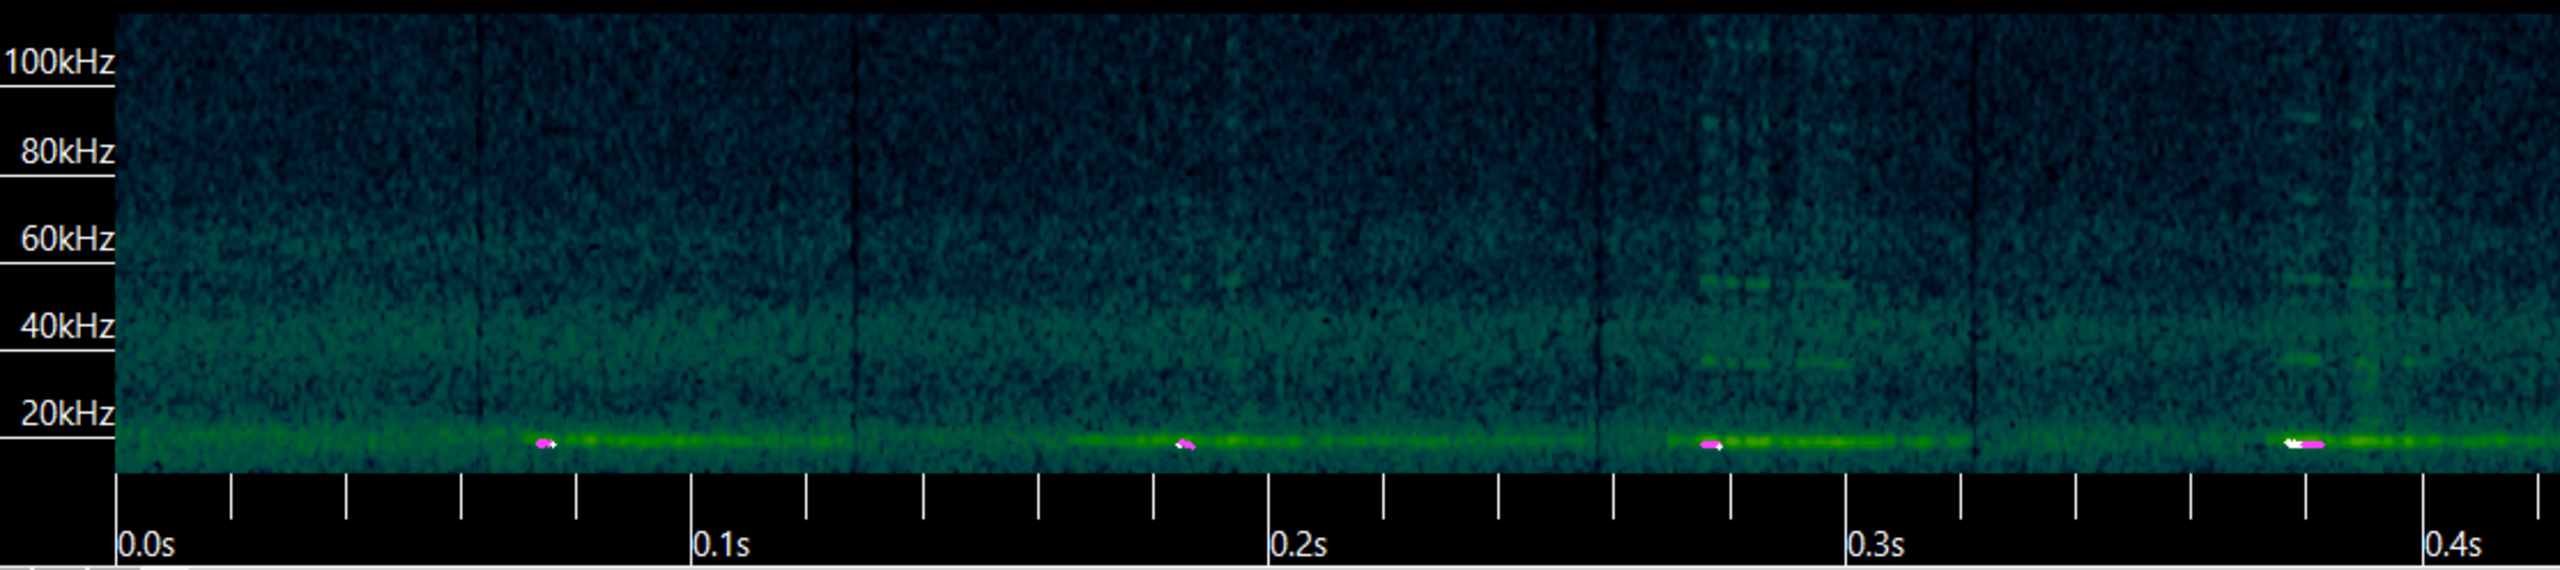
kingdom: Animalia
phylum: Chordata
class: Mammalia
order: Chiroptera
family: Vespertilionidae
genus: Nyctalus
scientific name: Nyctalus noctula
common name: Brunflagermus
